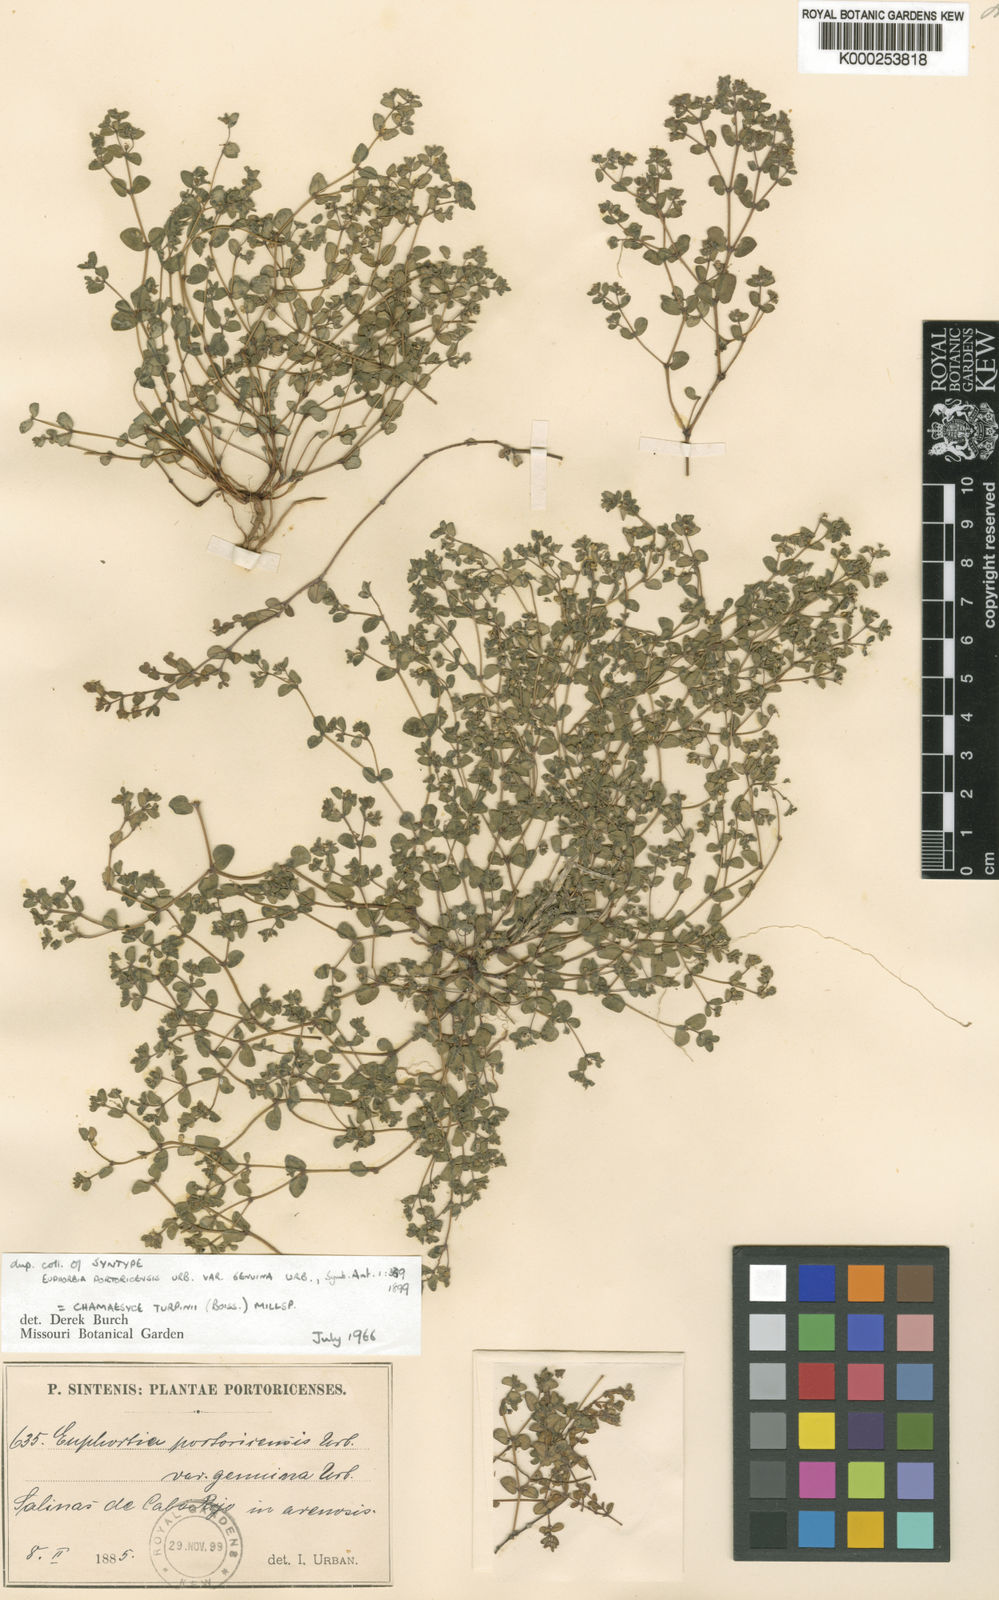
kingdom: Plantae
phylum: Tracheophyta
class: Magnoliopsida
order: Malpighiales
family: Euphorbiaceae
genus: Euphorbia
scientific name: Euphorbia turpinii
